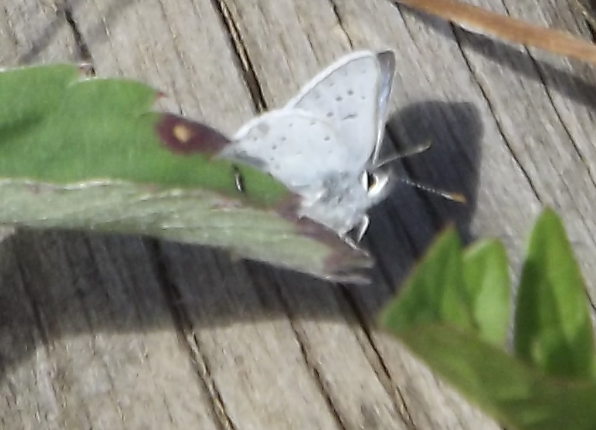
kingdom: Animalia
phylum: Arthropoda
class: Insecta
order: Lepidoptera
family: Lycaenidae
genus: Celastrina
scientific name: Celastrina
